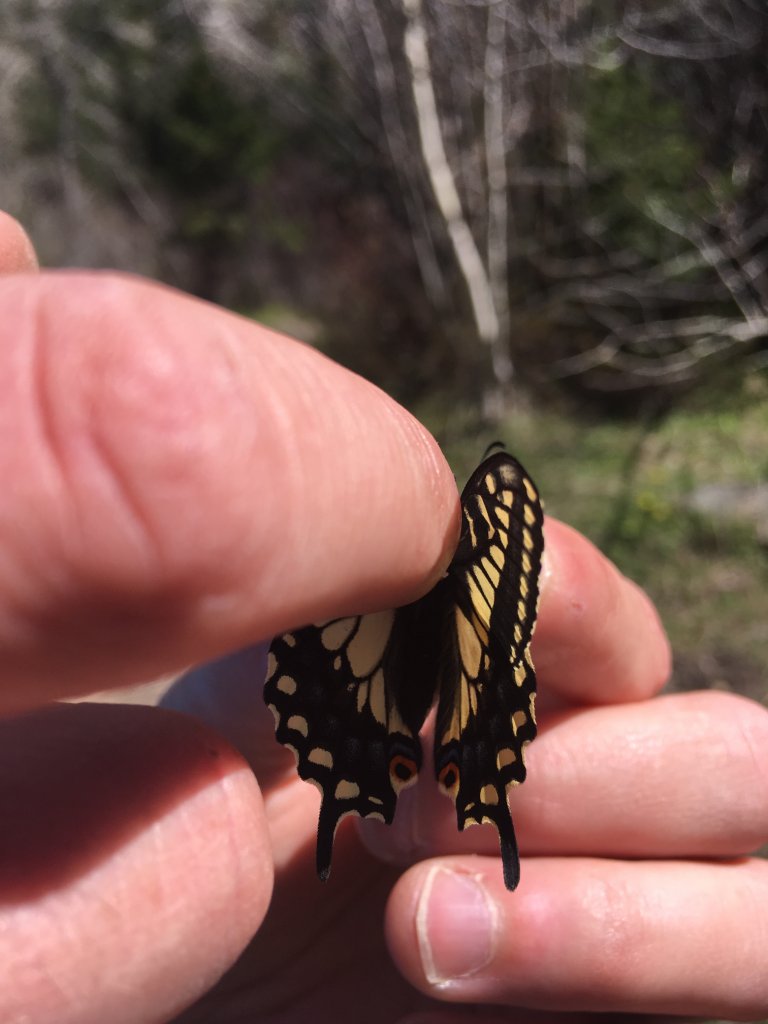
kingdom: Animalia
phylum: Arthropoda
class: Insecta
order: Lepidoptera
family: Papilionidae
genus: Papilio
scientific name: Papilio zelicaon
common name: Anise Swallowtail
